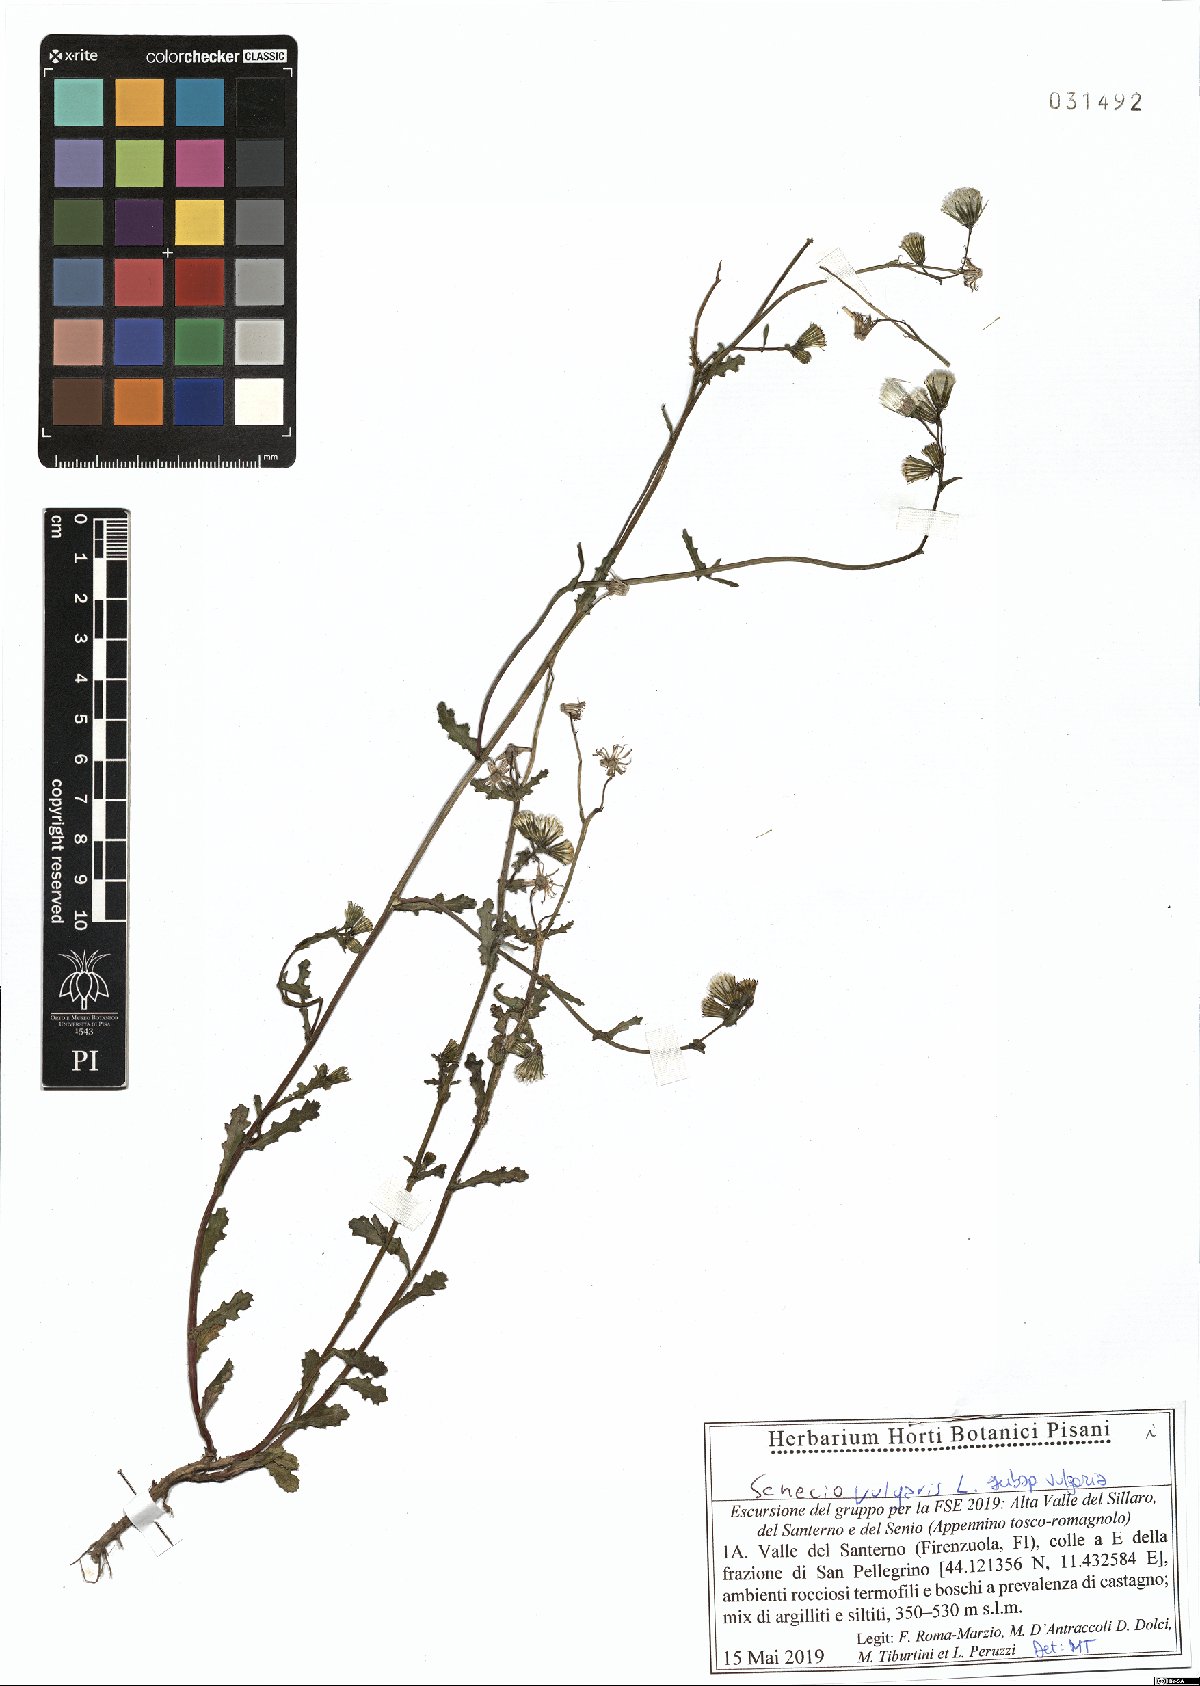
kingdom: Plantae
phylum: Tracheophyta
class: Magnoliopsida
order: Asterales
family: Asteraceae
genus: Senecio
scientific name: Senecio vulgaris
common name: Old-man-in-the-spring
